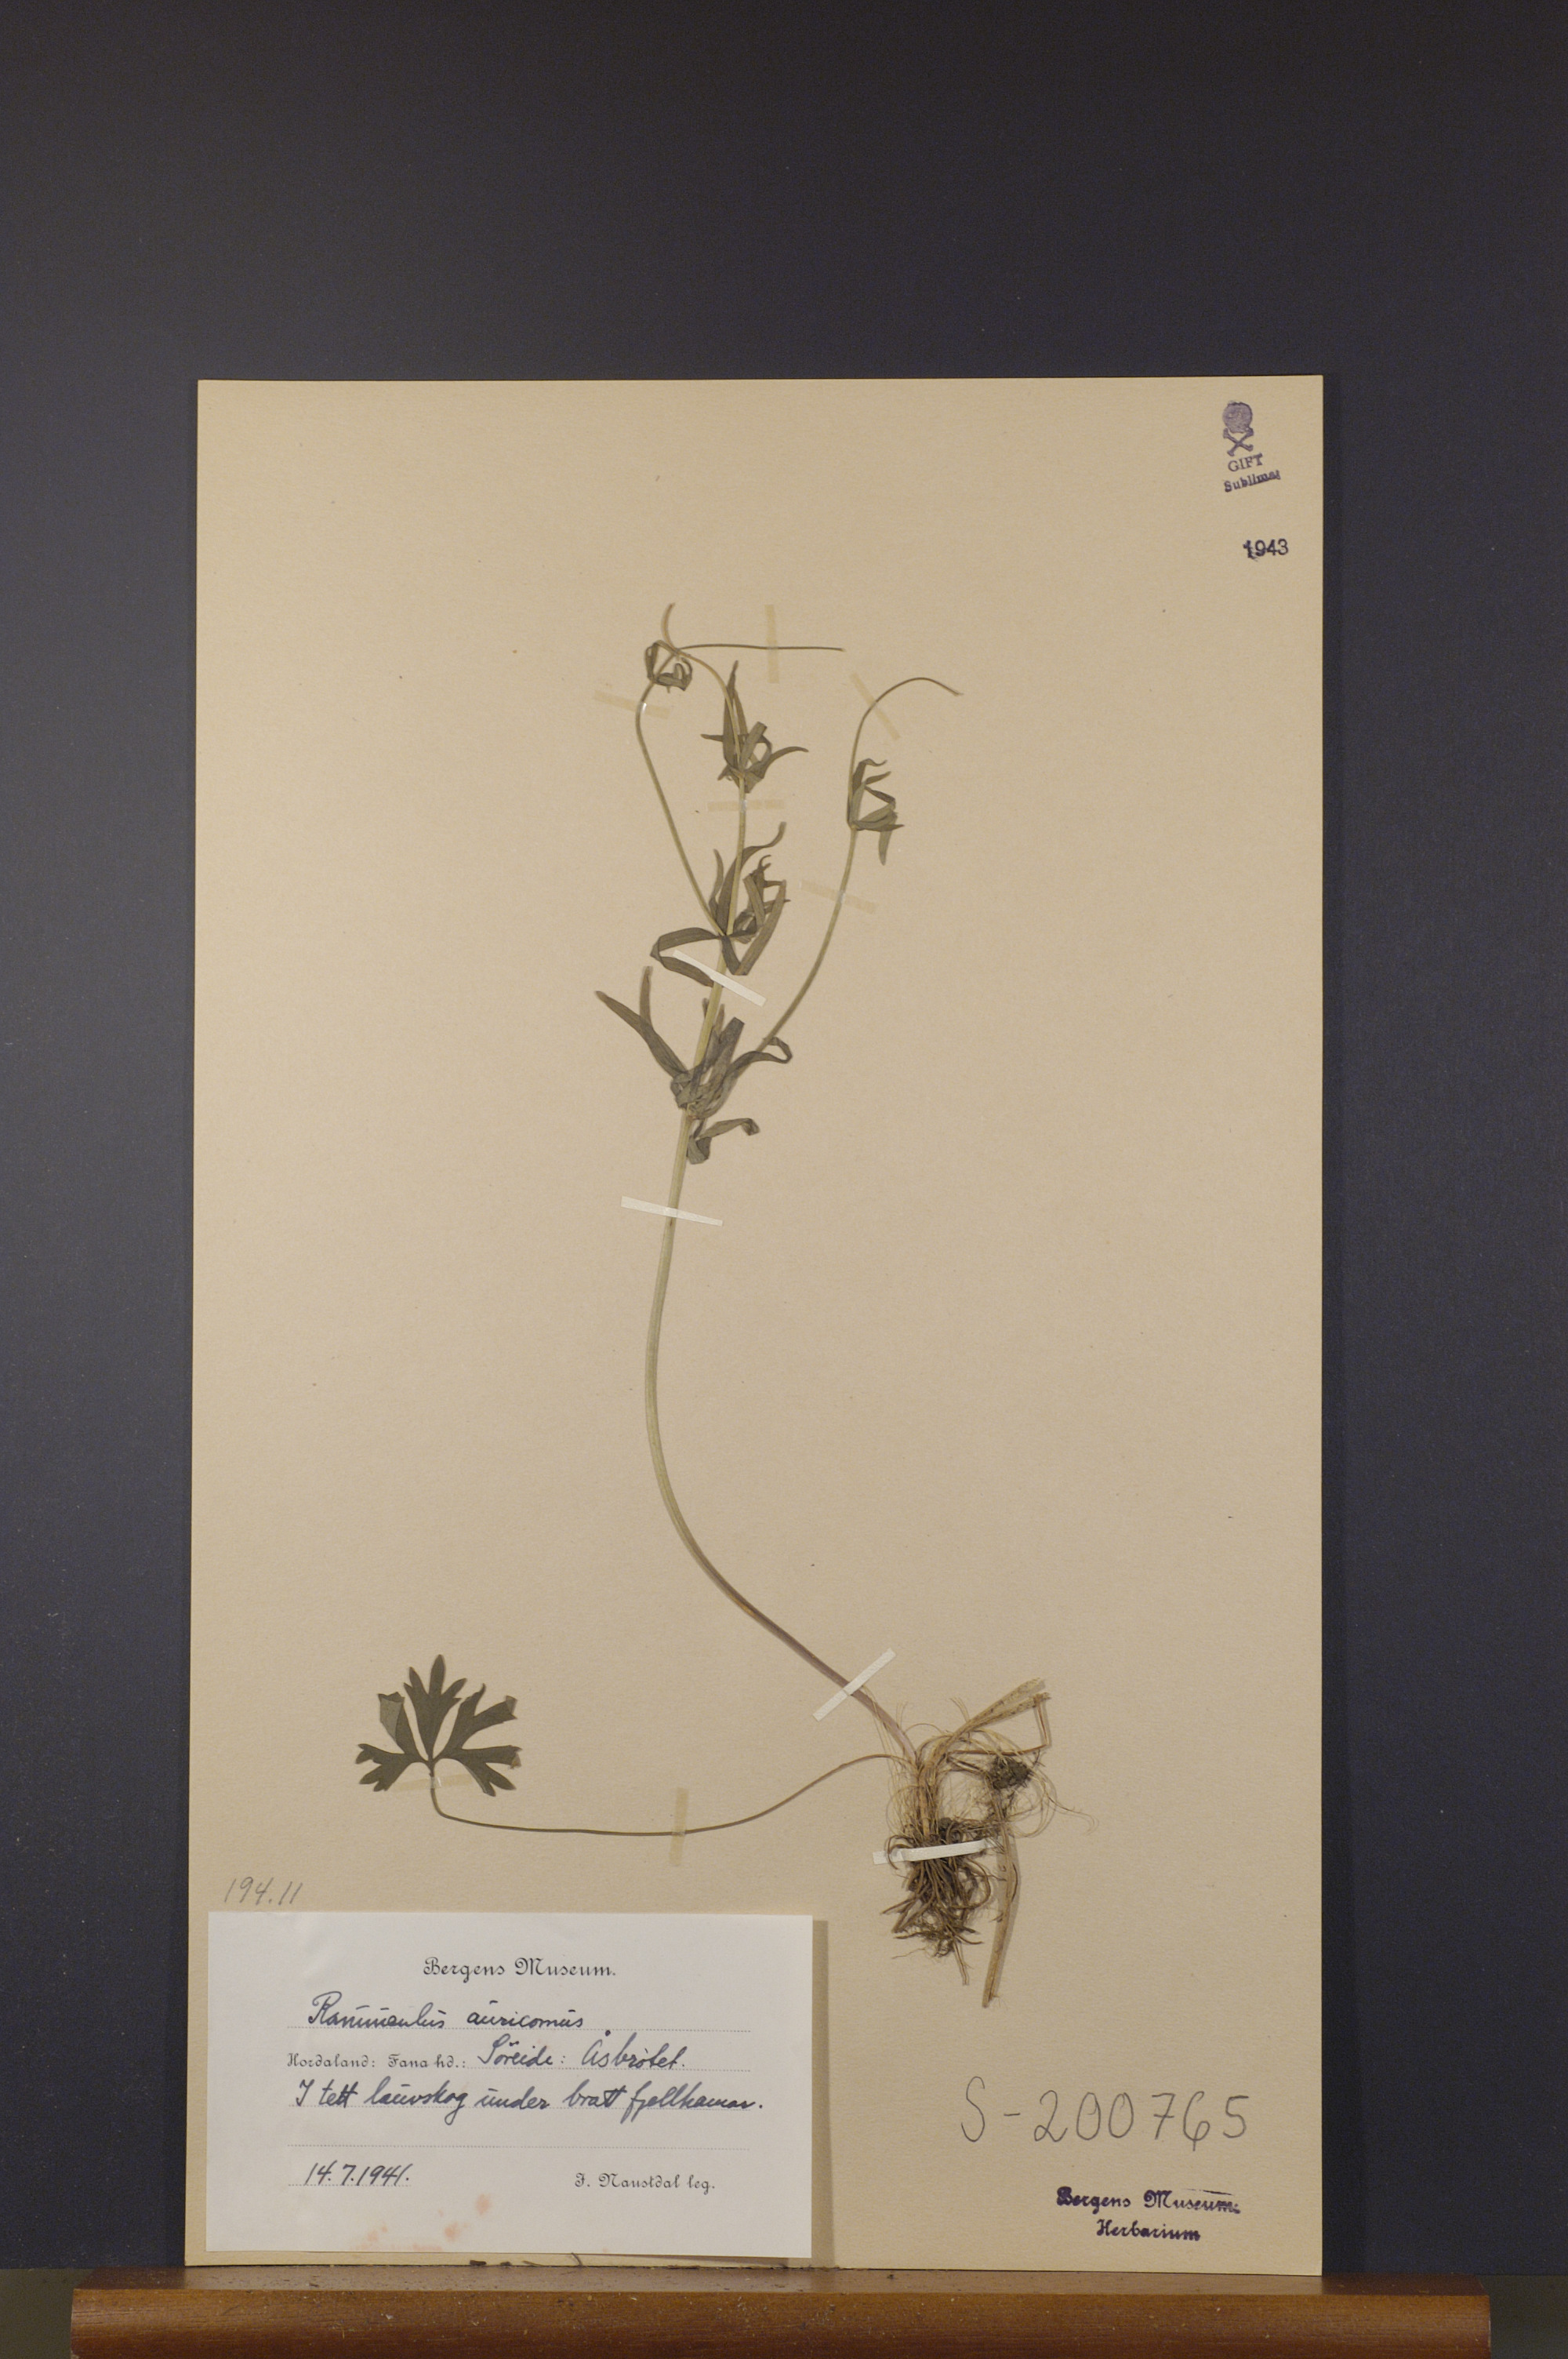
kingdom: Plantae
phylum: Tracheophyta
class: Magnoliopsida
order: Ranunculales
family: Ranunculaceae
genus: Ranunculus
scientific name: Ranunculus auricomus
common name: Goldilocks buttercup
